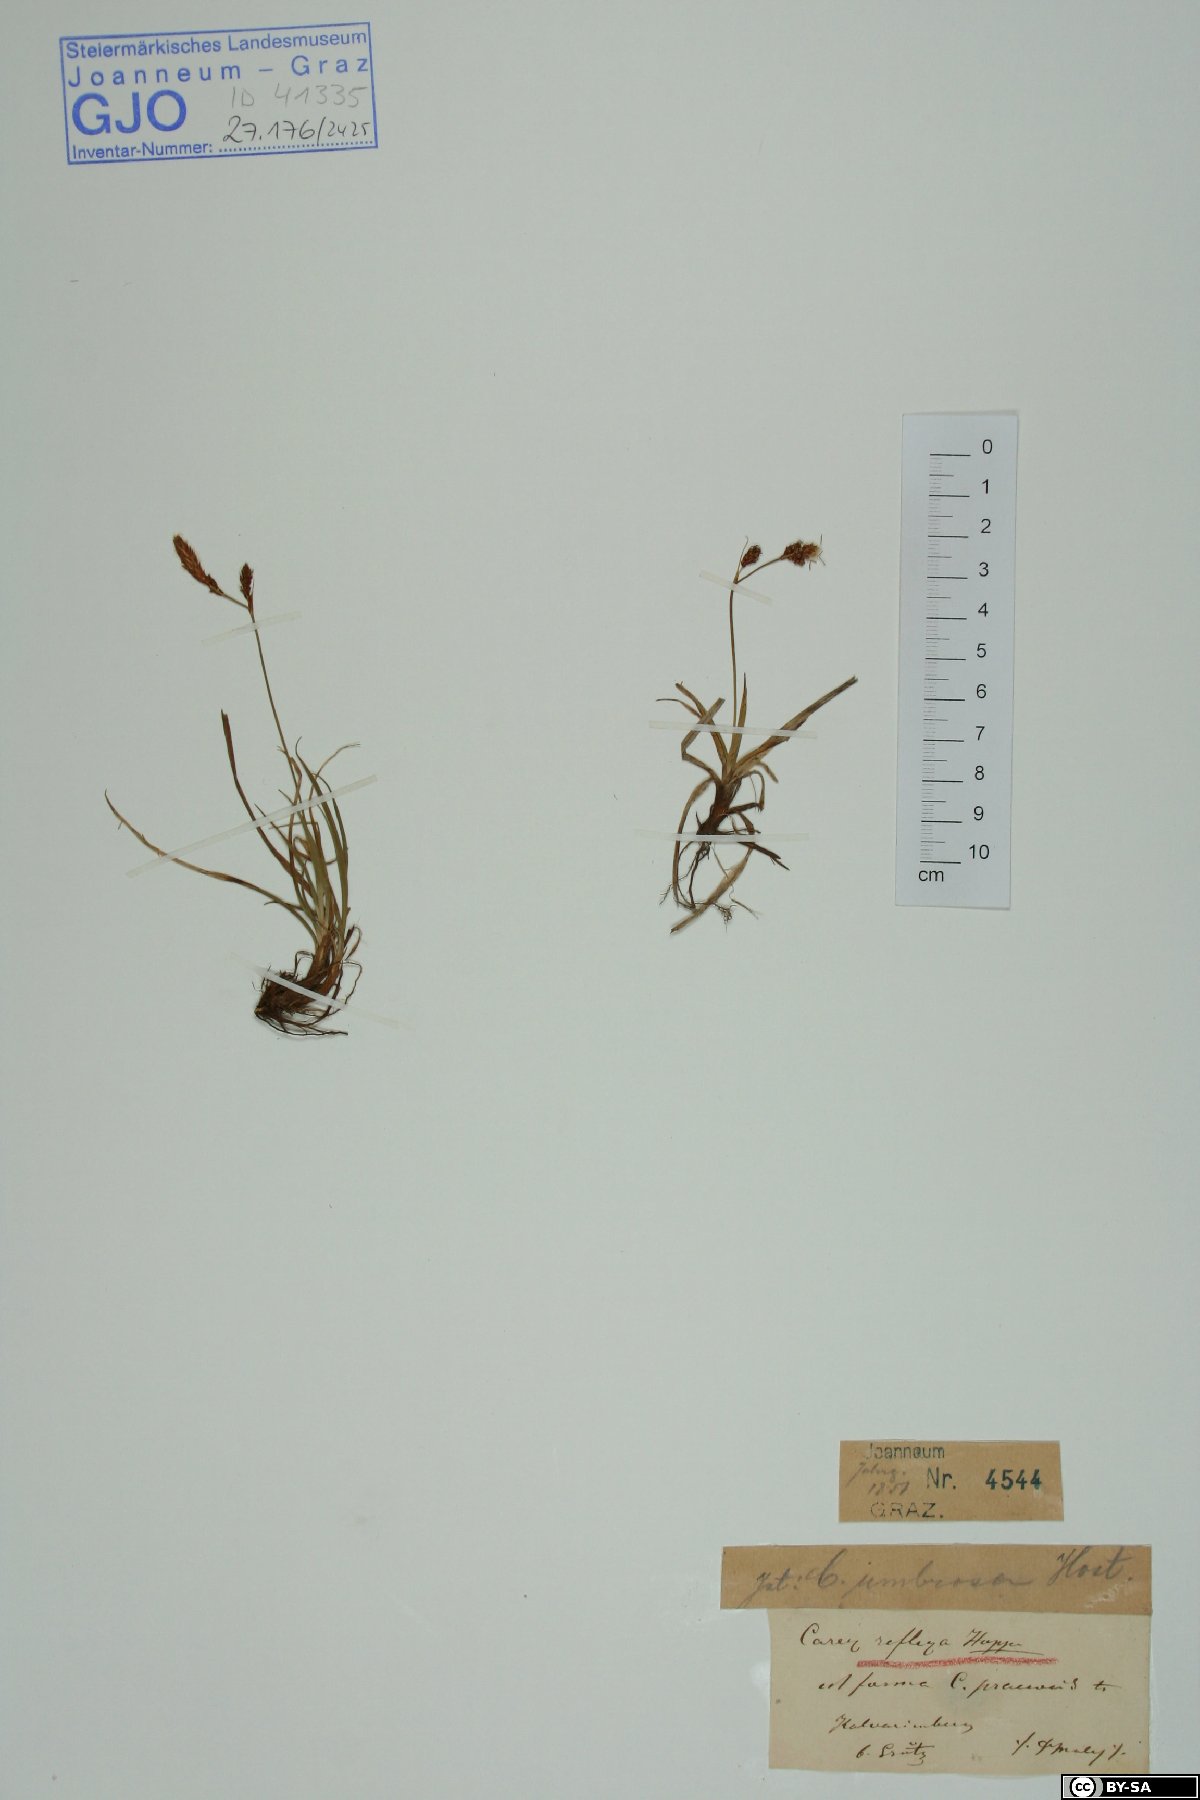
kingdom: Plantae
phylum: Tracheophyta
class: Liliopsida
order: Poales
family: Cyperaceae
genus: Carex
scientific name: Carex caryophyllea
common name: Spring sedge
